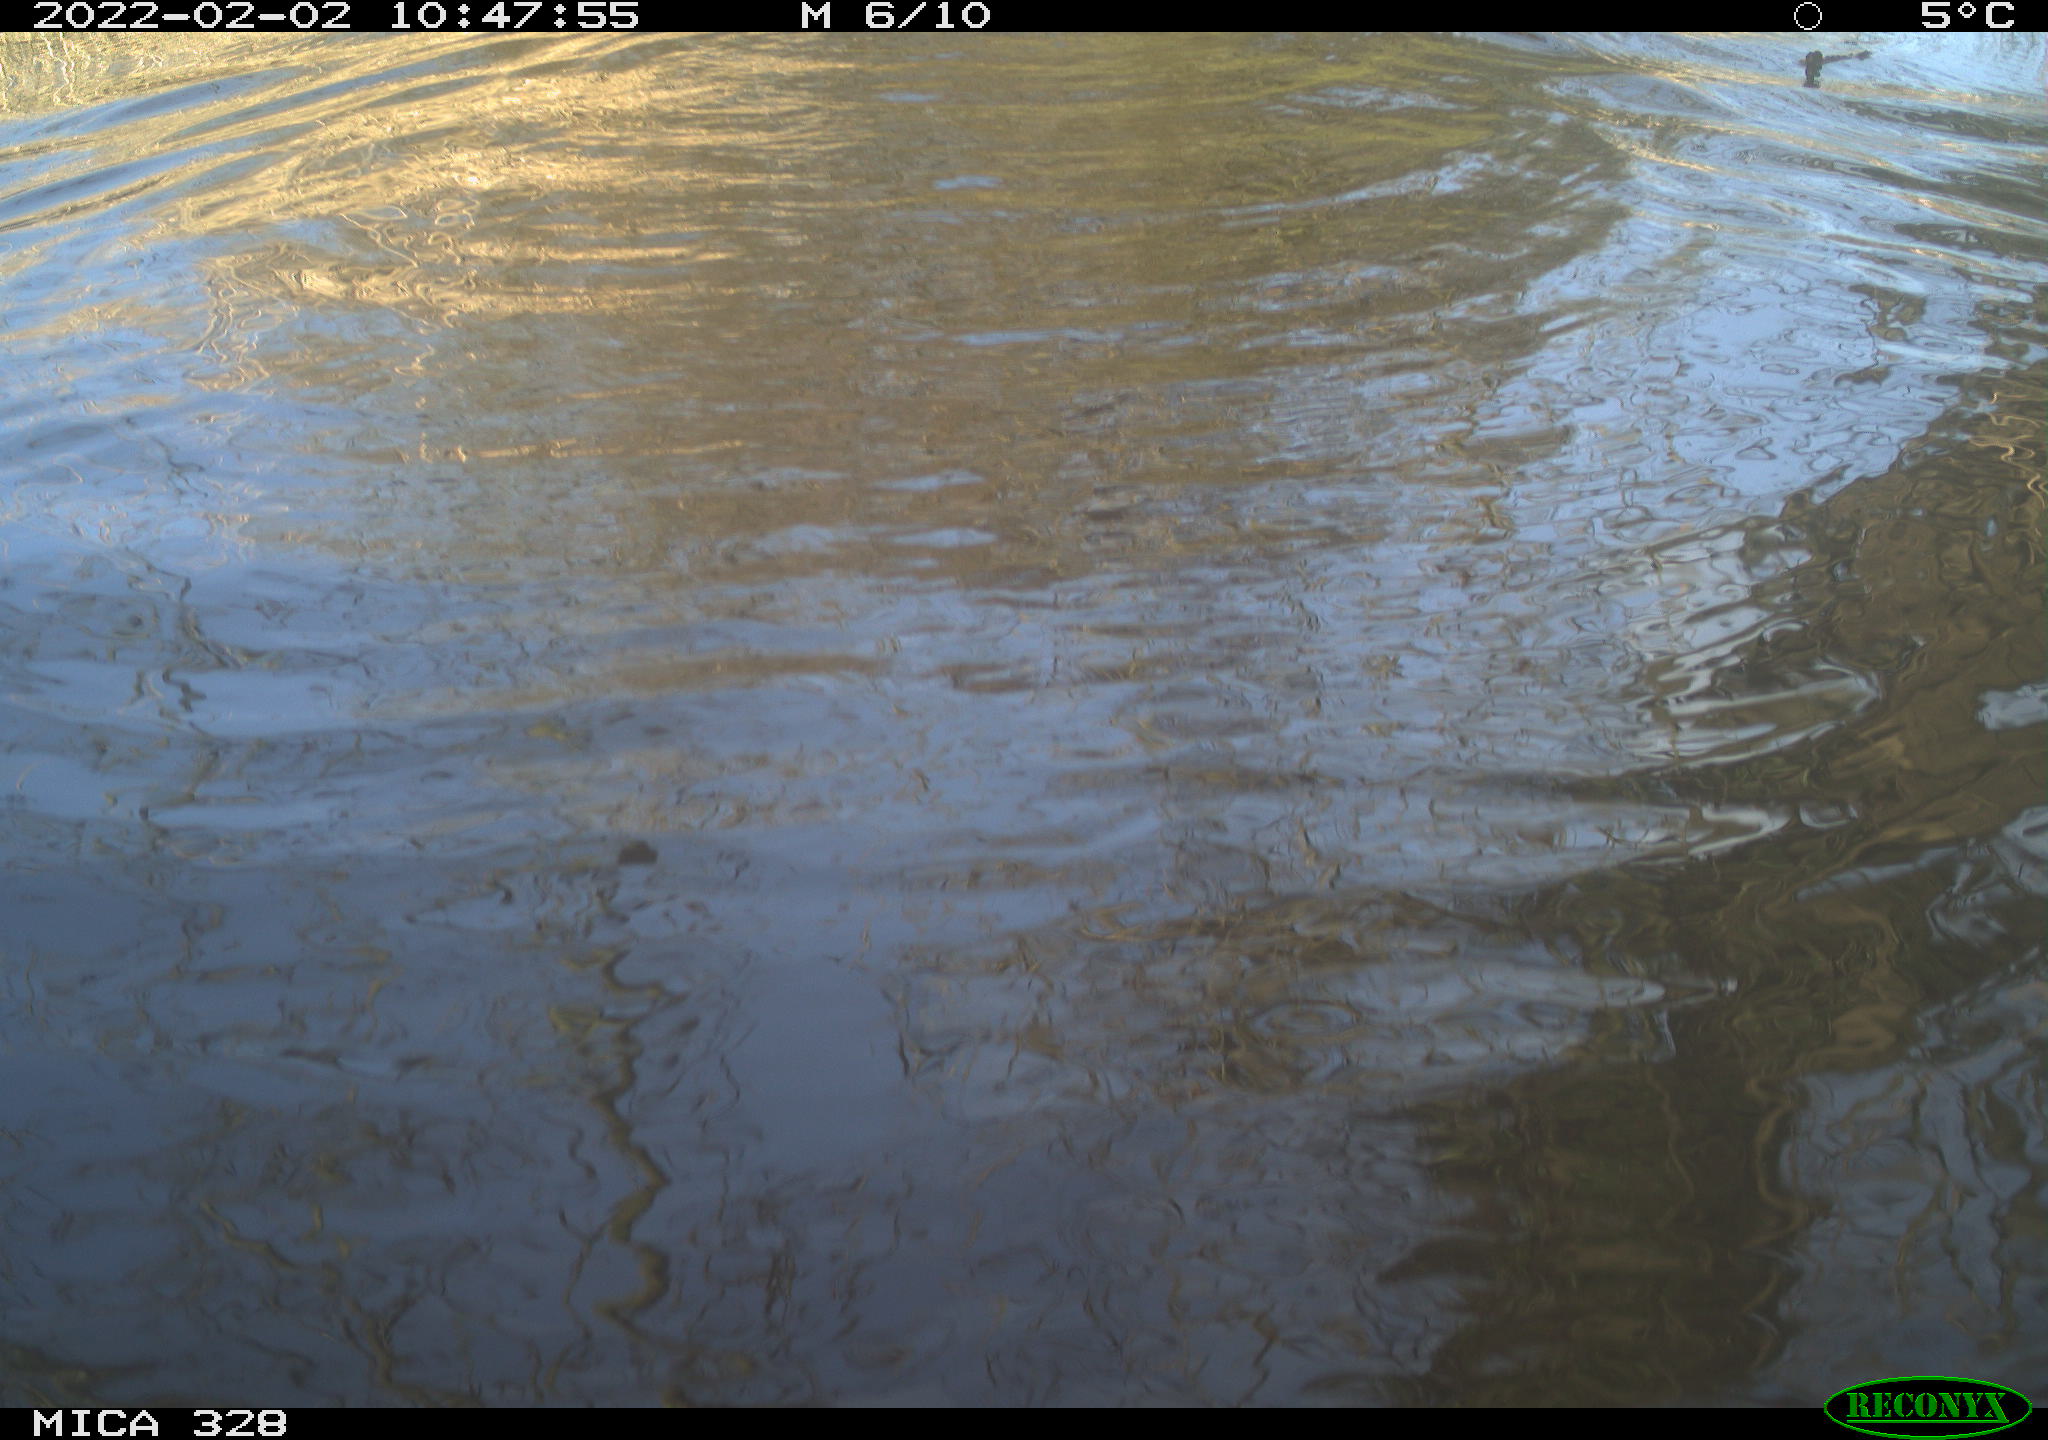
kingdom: Animalia
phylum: Chordata
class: Mammalia
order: Rodentia
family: Cricetidae
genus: Ondatra
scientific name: Ondatra zibethicus
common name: Muskrat
